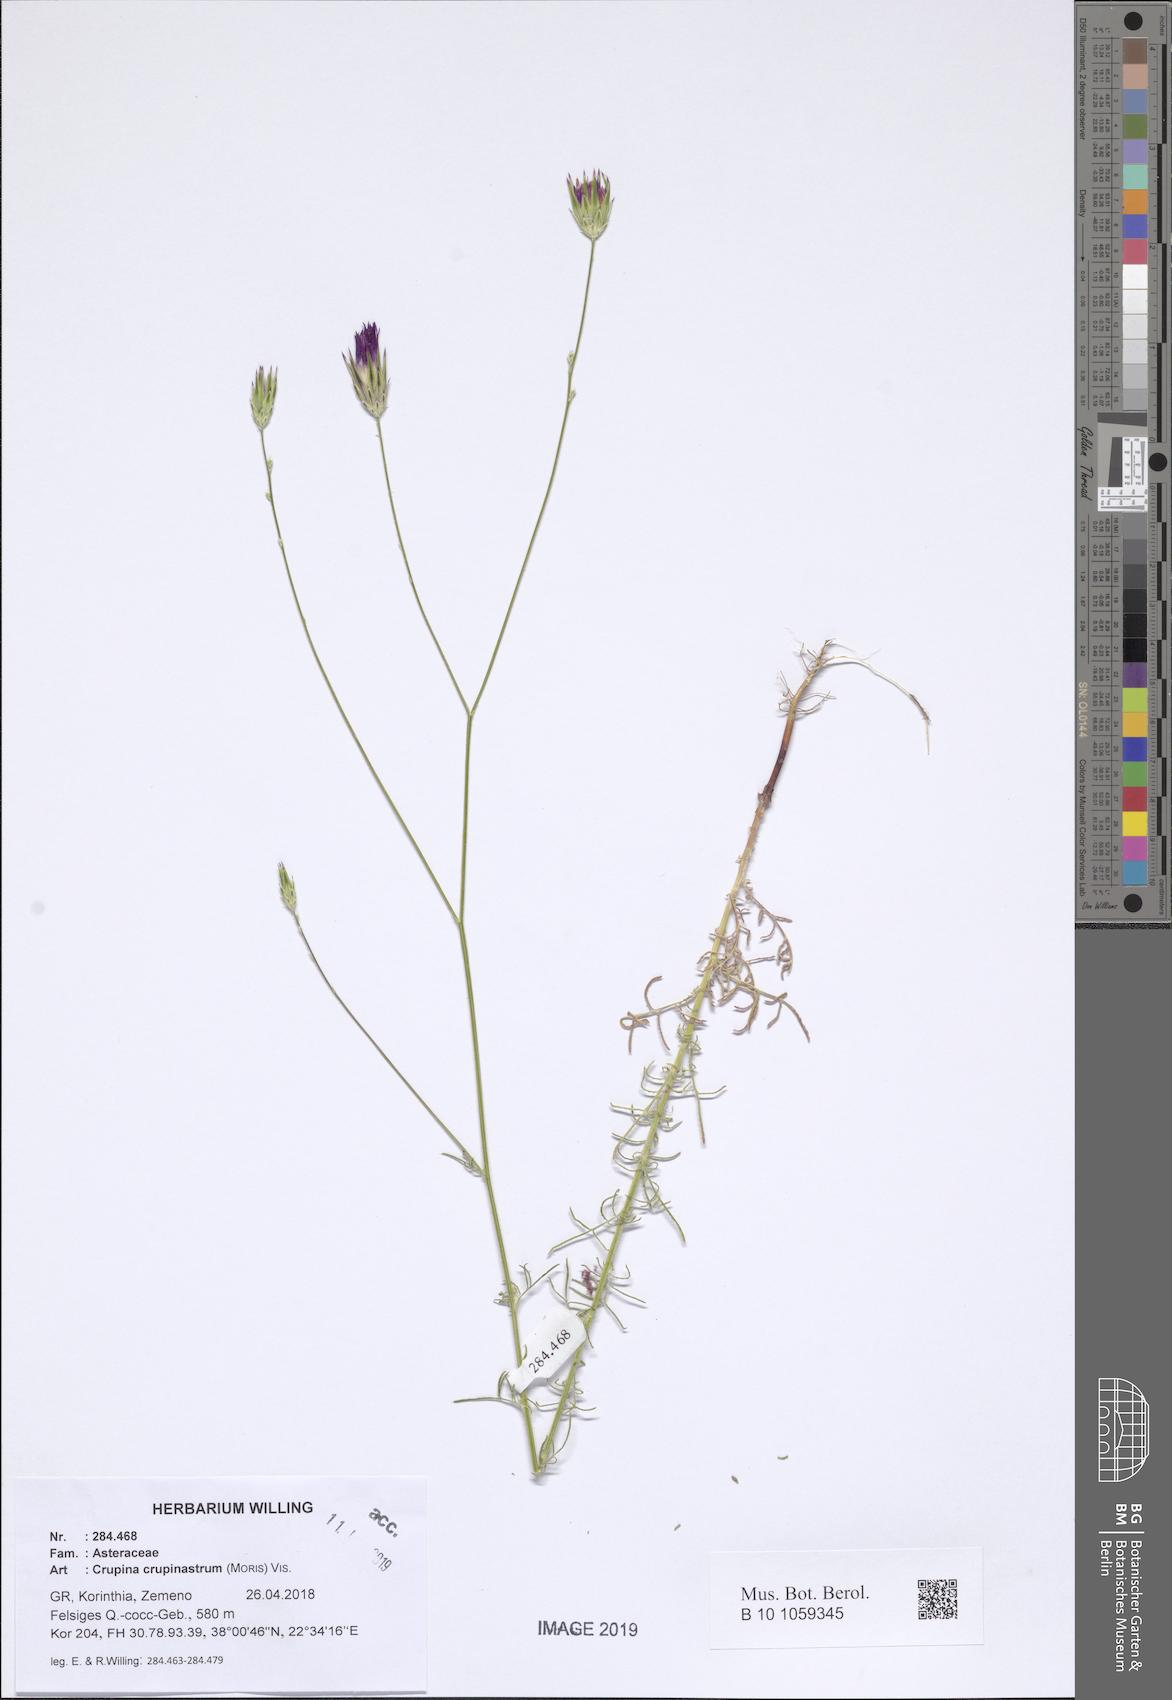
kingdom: Plantae
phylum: Tracheophyta
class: Magnoliopsida
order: Asterales
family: Asteraceae
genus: Crupina
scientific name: Crupina crupinastrum
